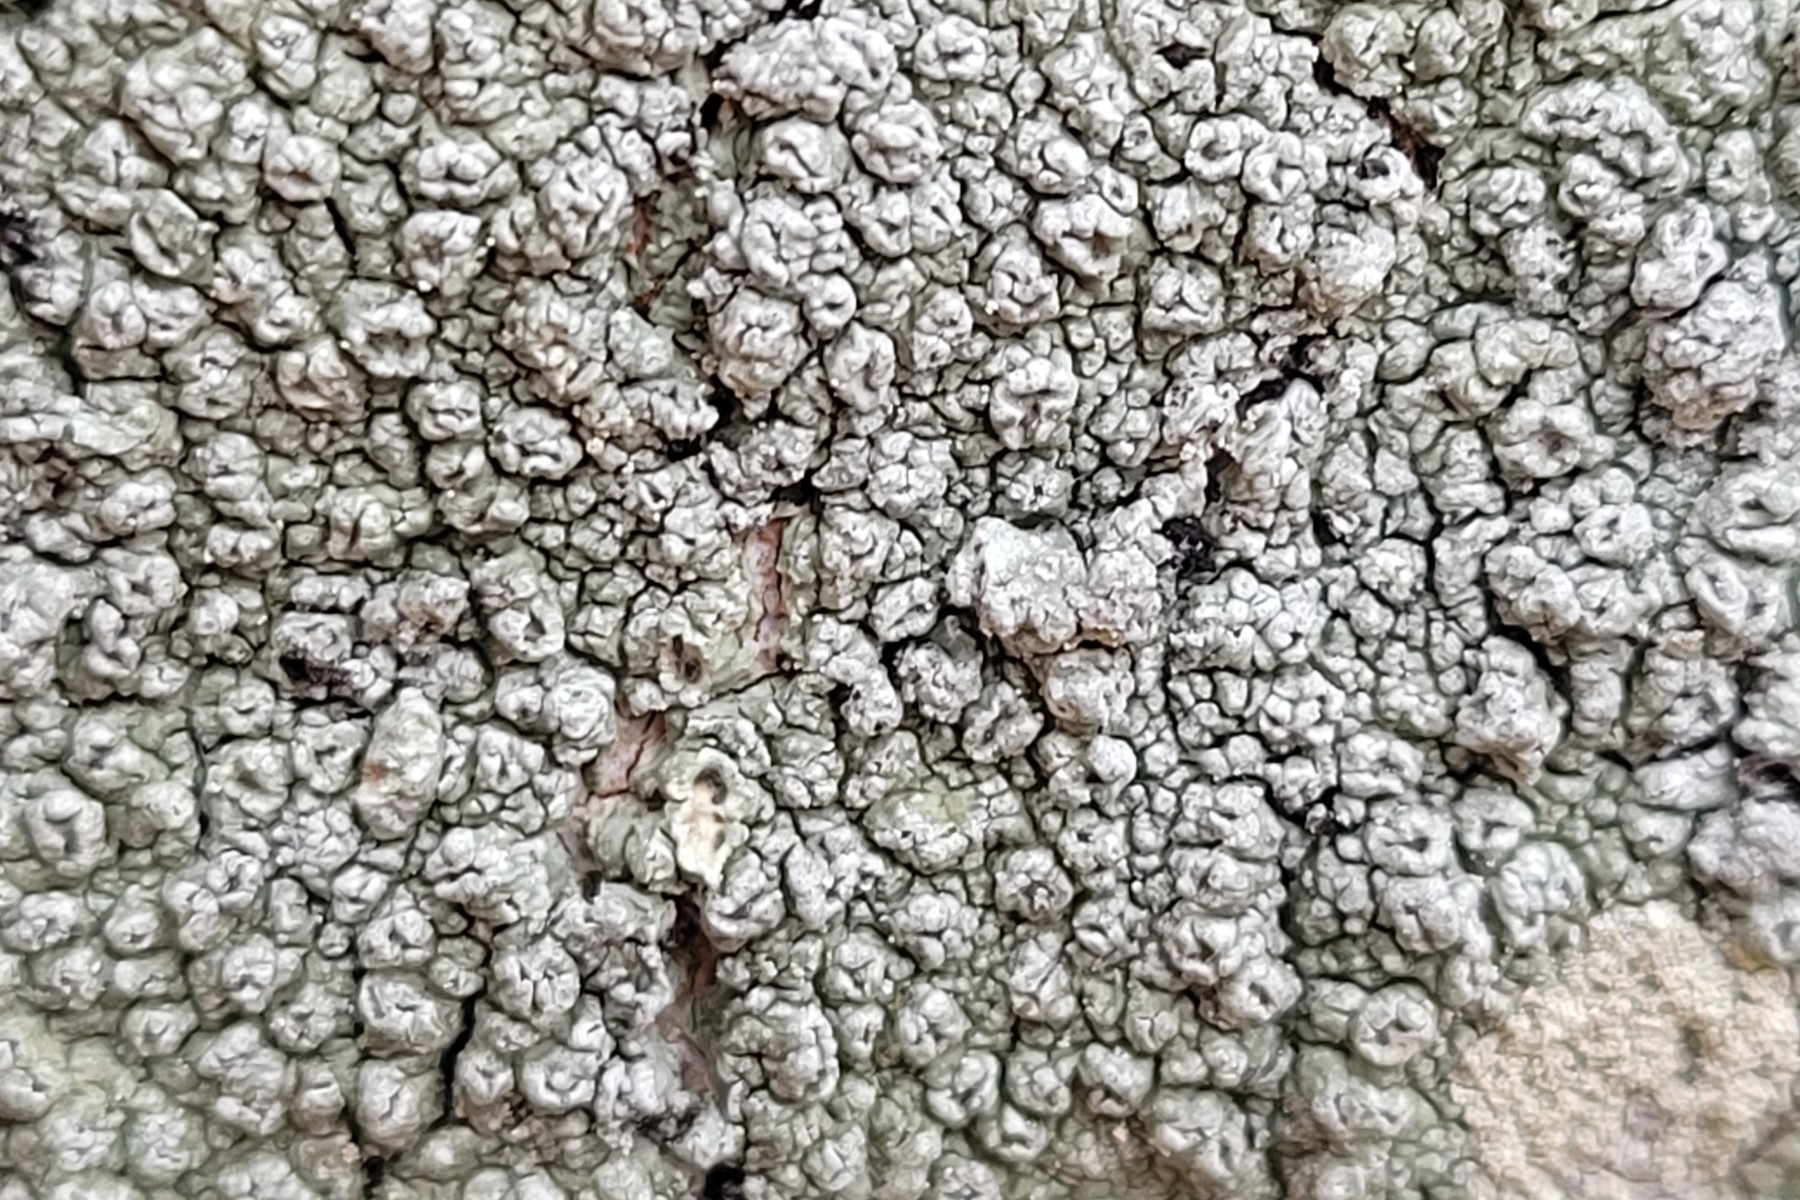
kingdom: Fungi
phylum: Ascomycota
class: Lecanoromycetes
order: Pertusariales
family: Pertusariaceae
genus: Pertusaria
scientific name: Pertusaria hymenea
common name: åben prikvortelav
